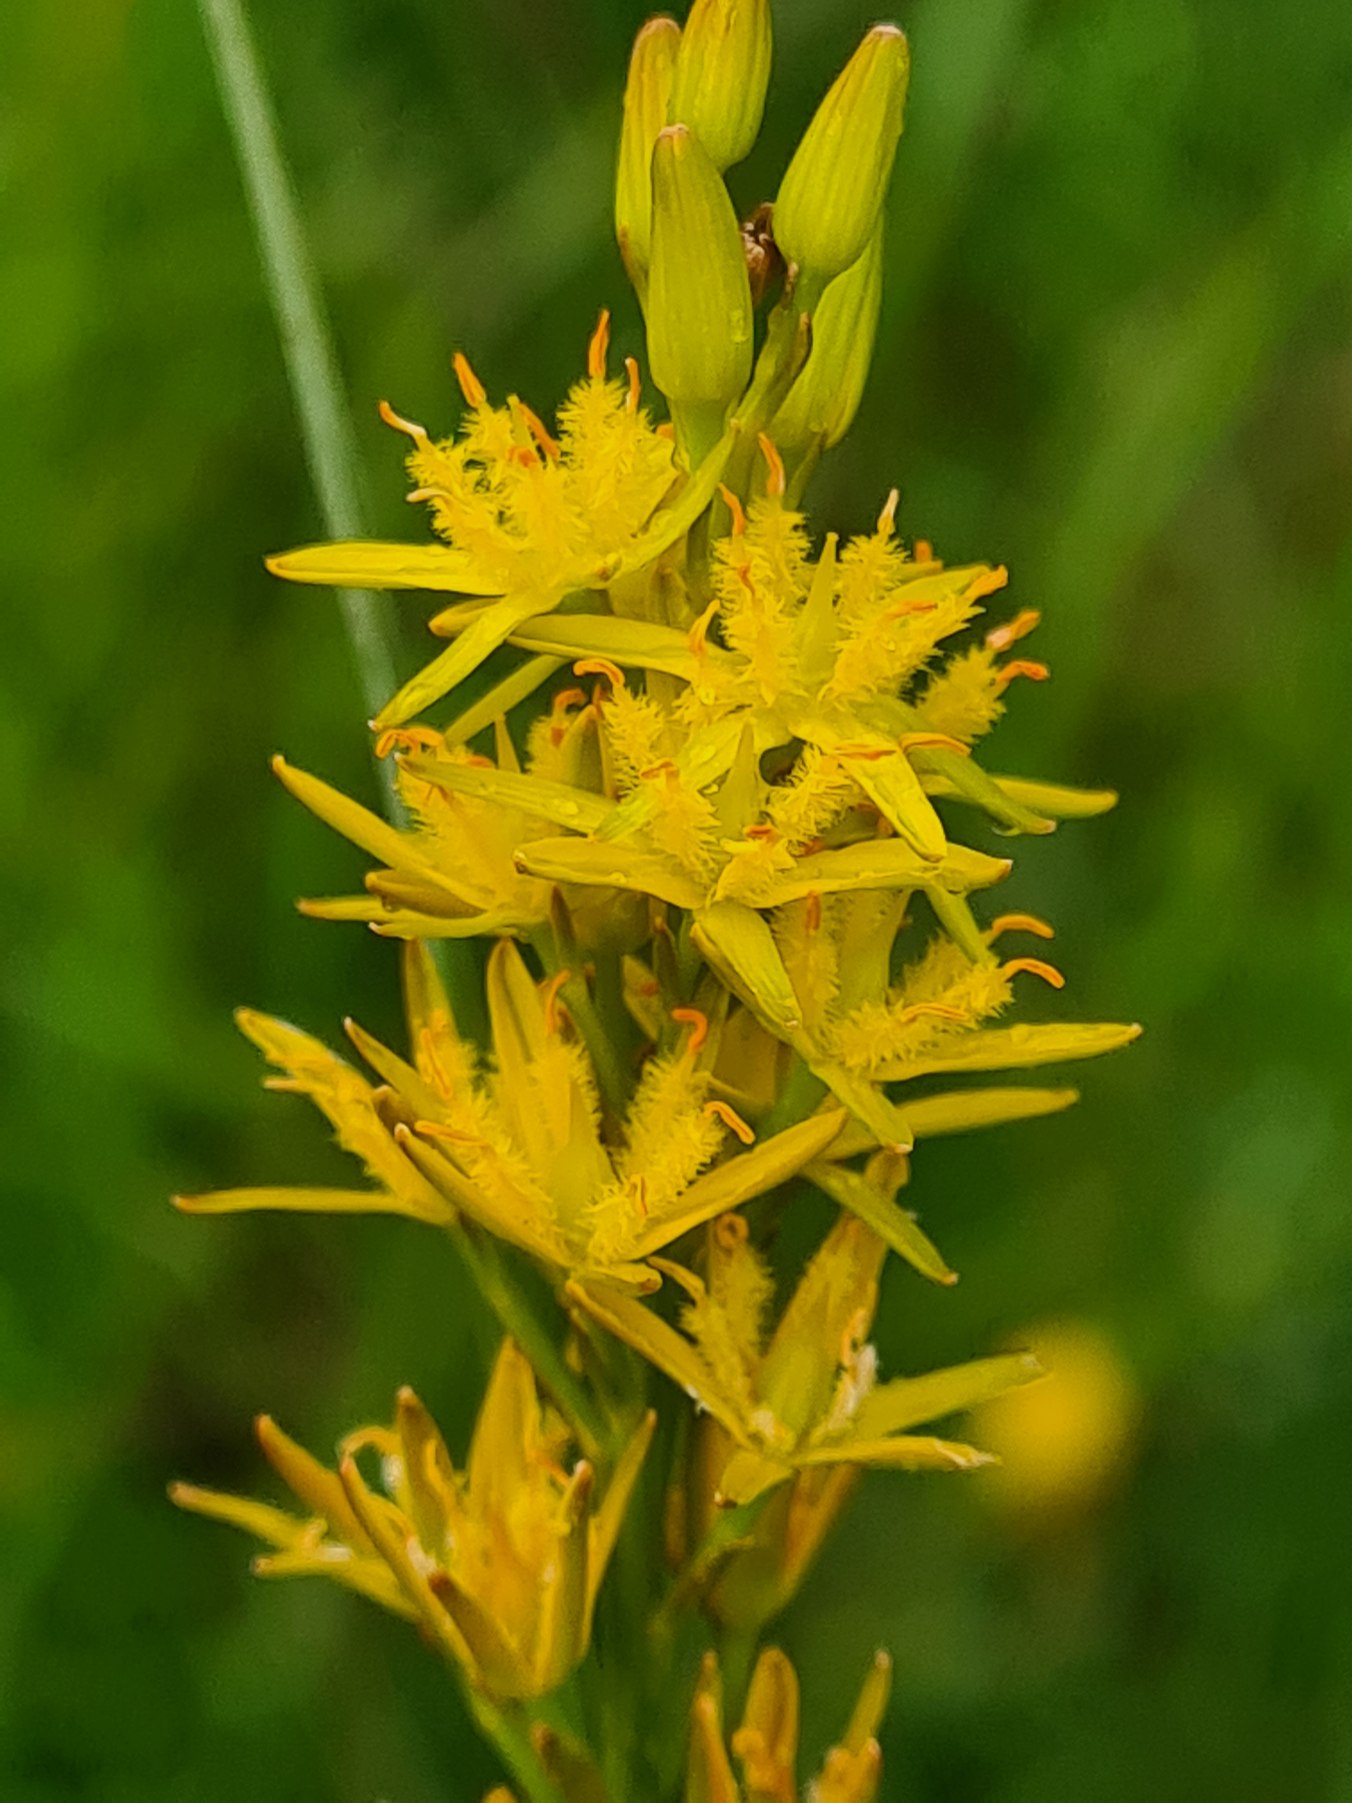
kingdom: Plantae
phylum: Tracheophyta
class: Liliopsida
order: Dioscoreales
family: Nartheciaceae
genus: Narthecium
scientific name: Narthecium ossifragum
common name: Benbræk
